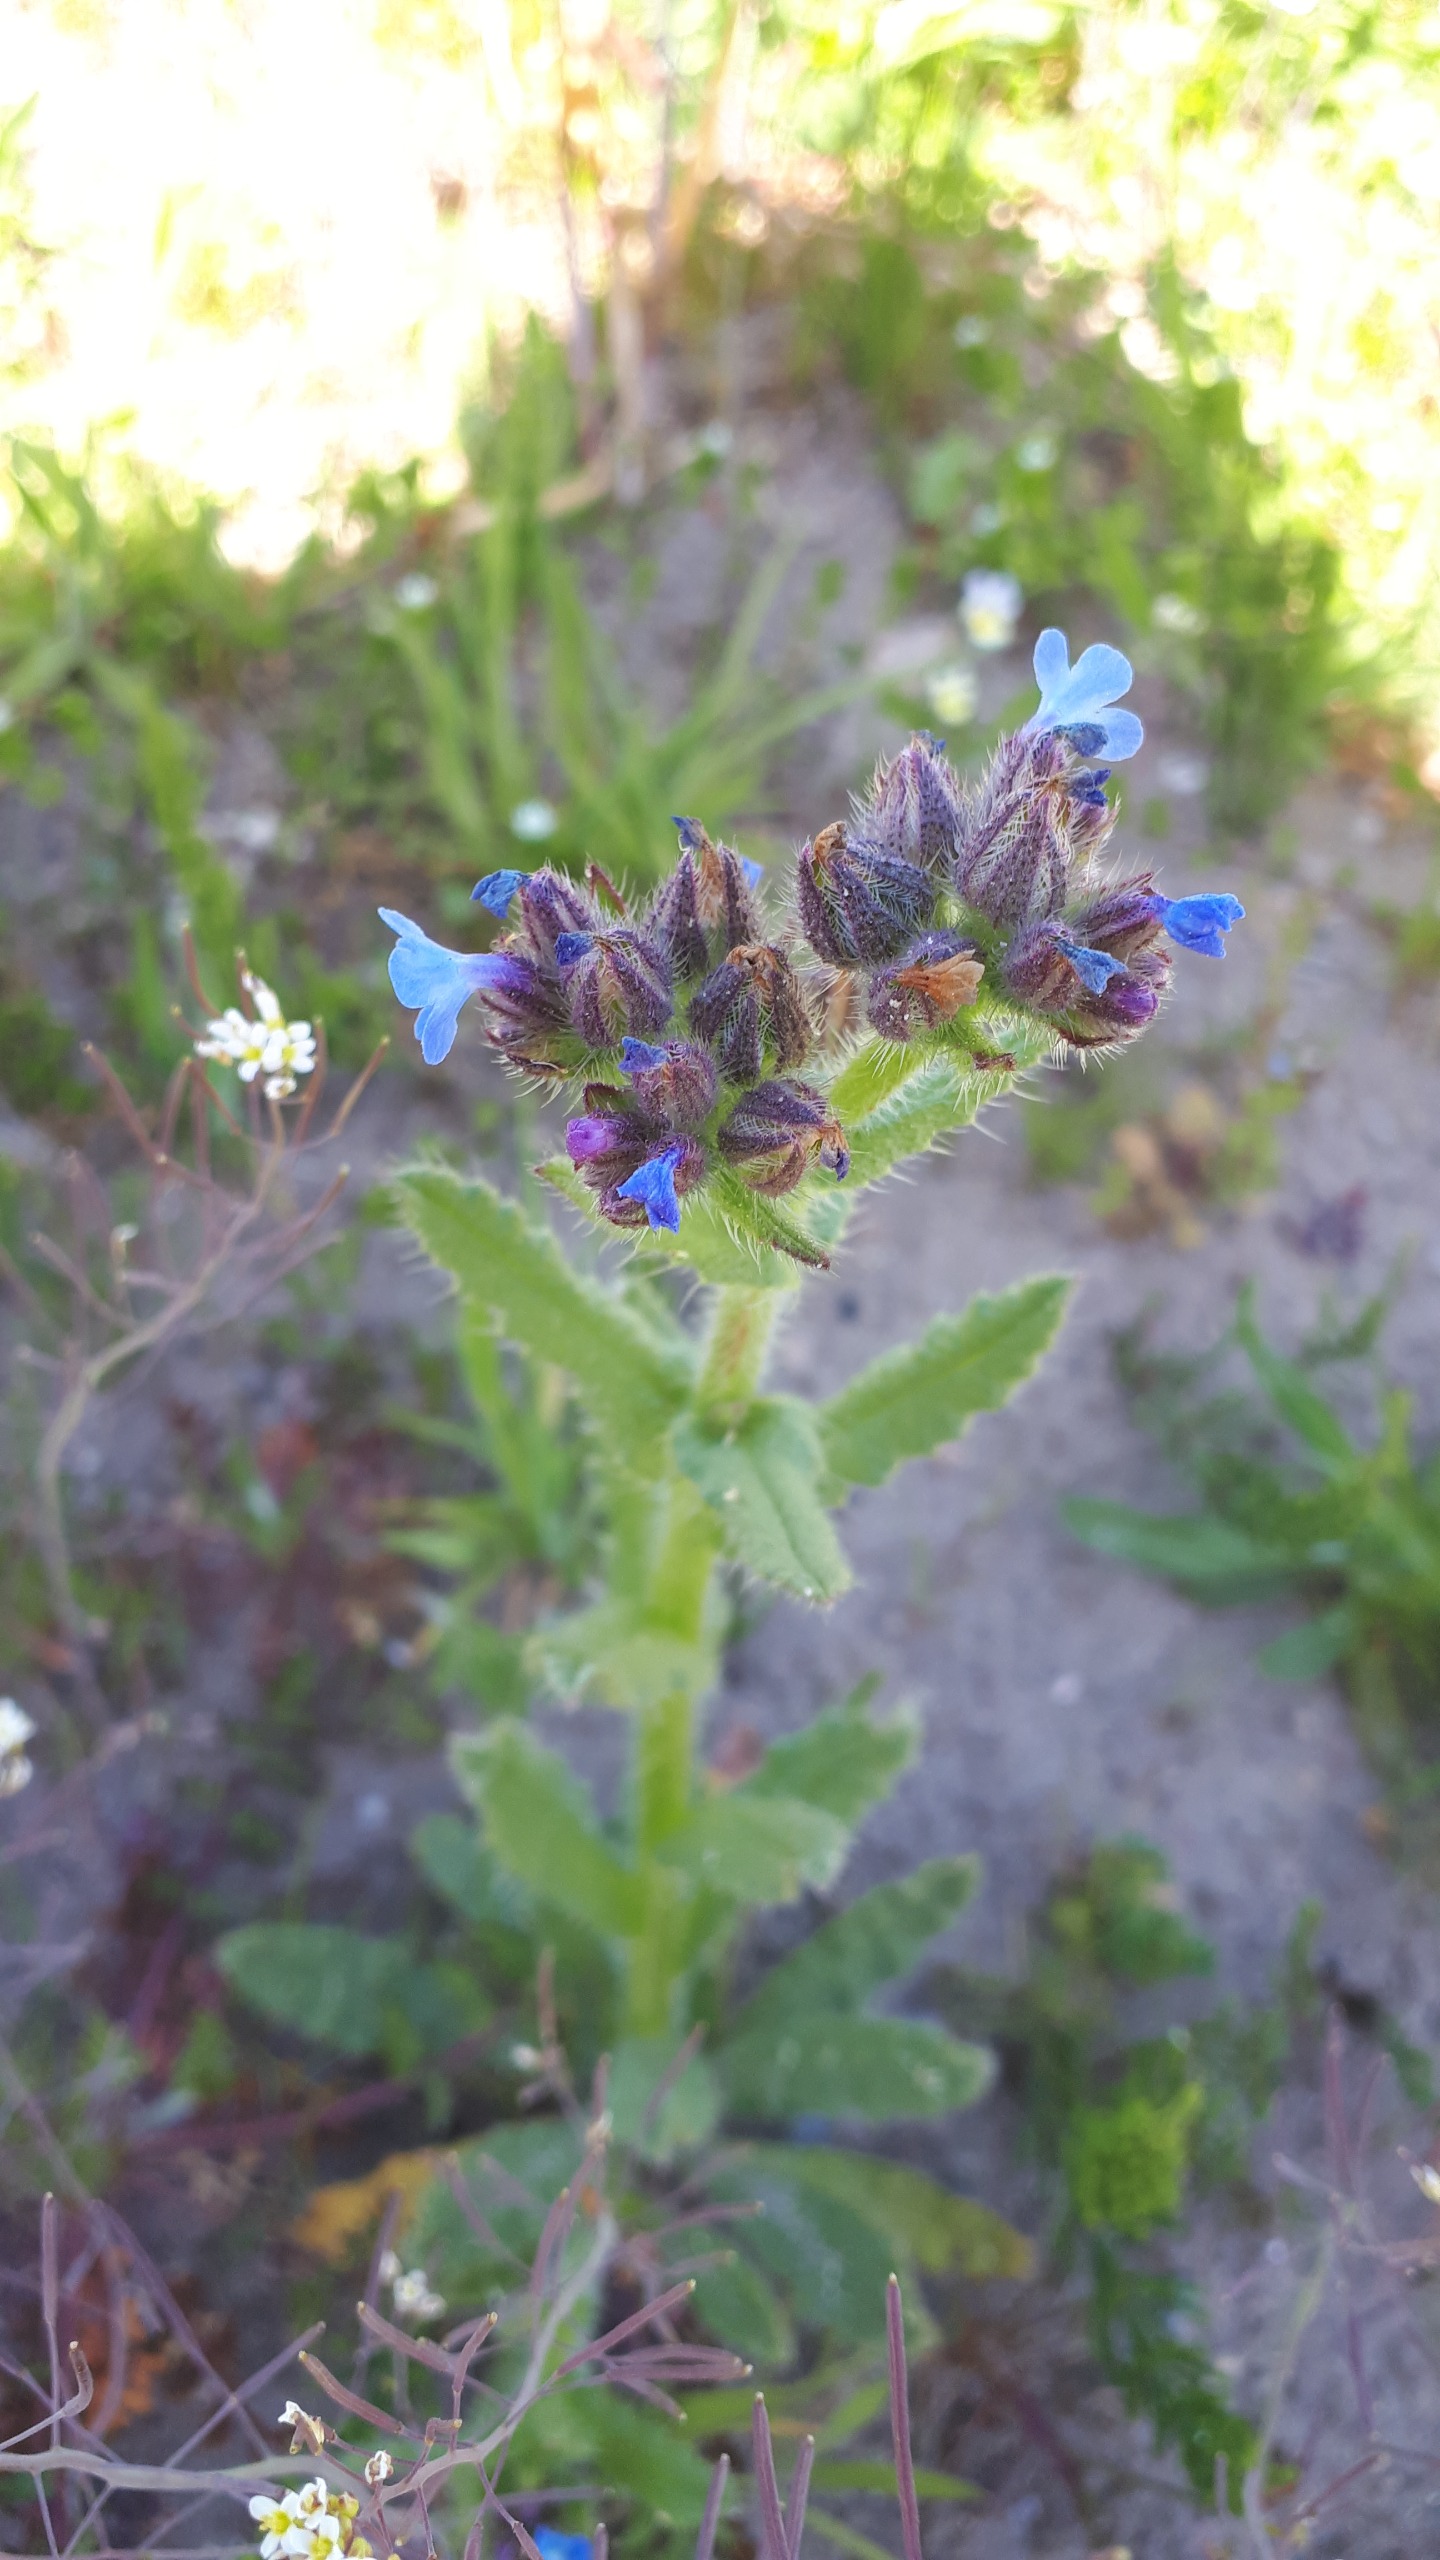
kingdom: Plantae
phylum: Tracheophyta
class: Magnoliopsida
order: Boraginales
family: Boraginaceae
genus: Lycopsis
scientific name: Lycopsis arvensis
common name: Krumhals
